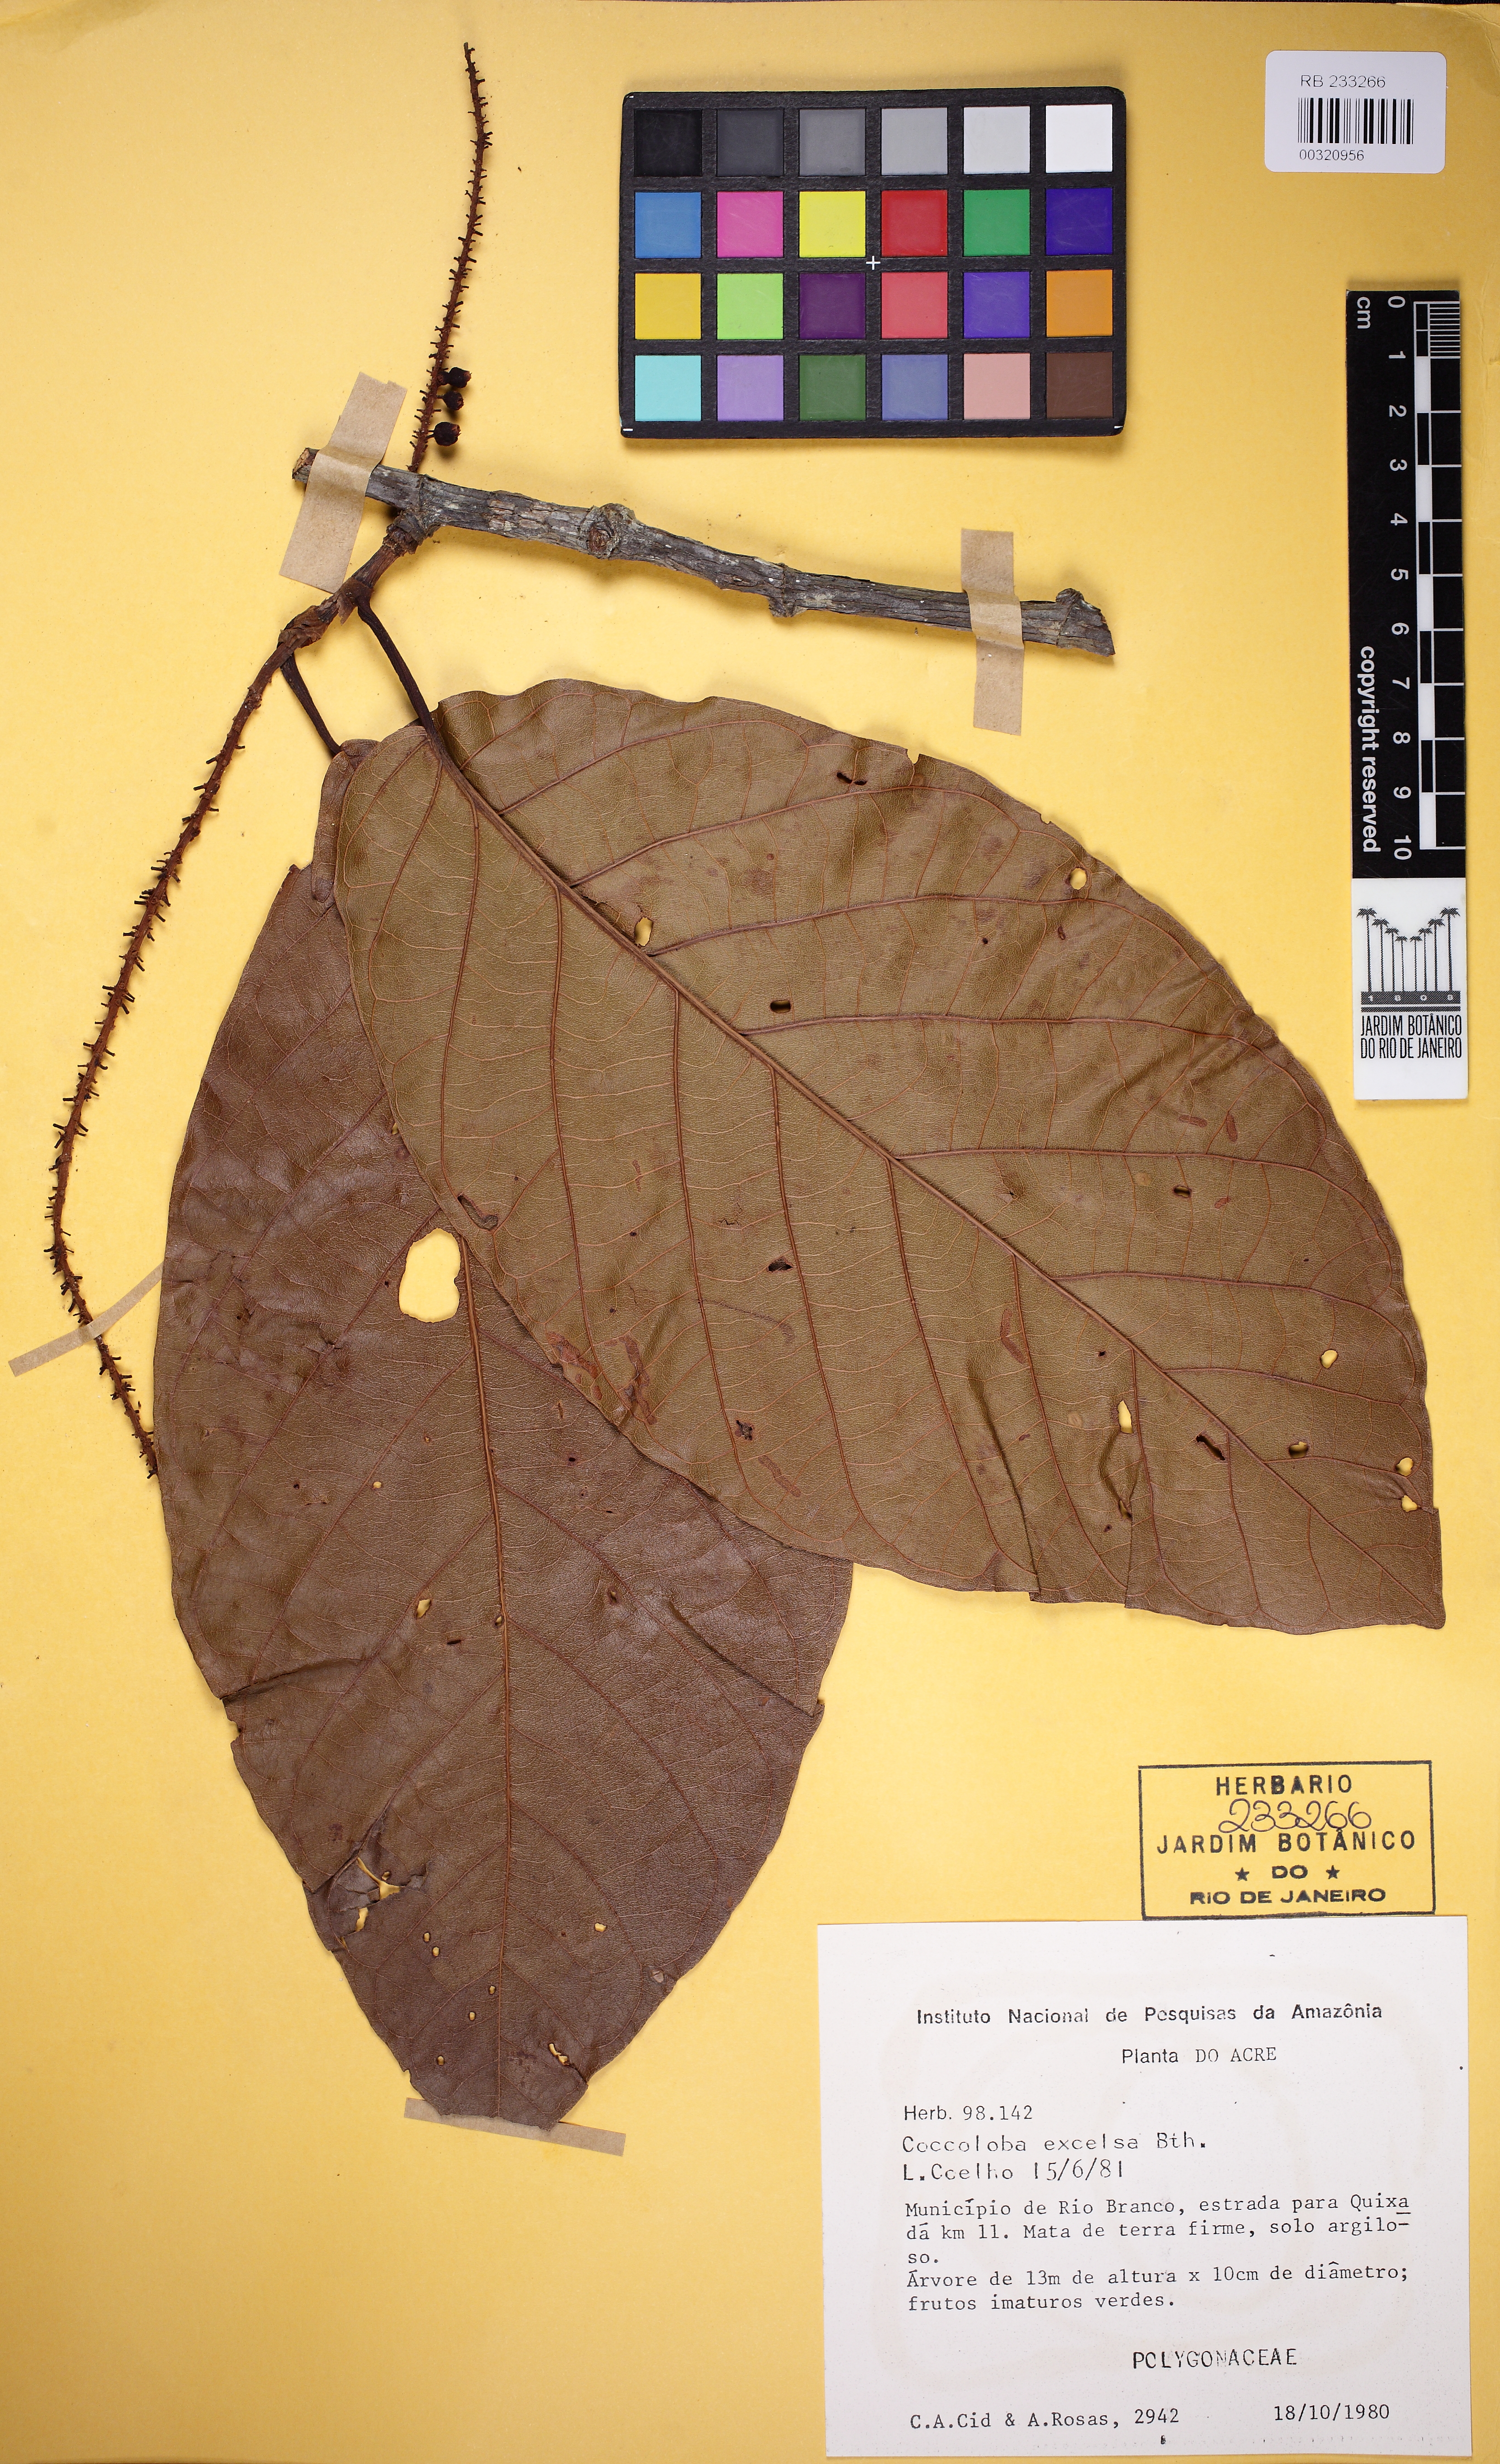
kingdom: Plantae
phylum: Tracheophyta
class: Magnoliopsida
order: Caryophyllales
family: Polygonaceae
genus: Coccoloba
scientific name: Coccoloba excelsa
